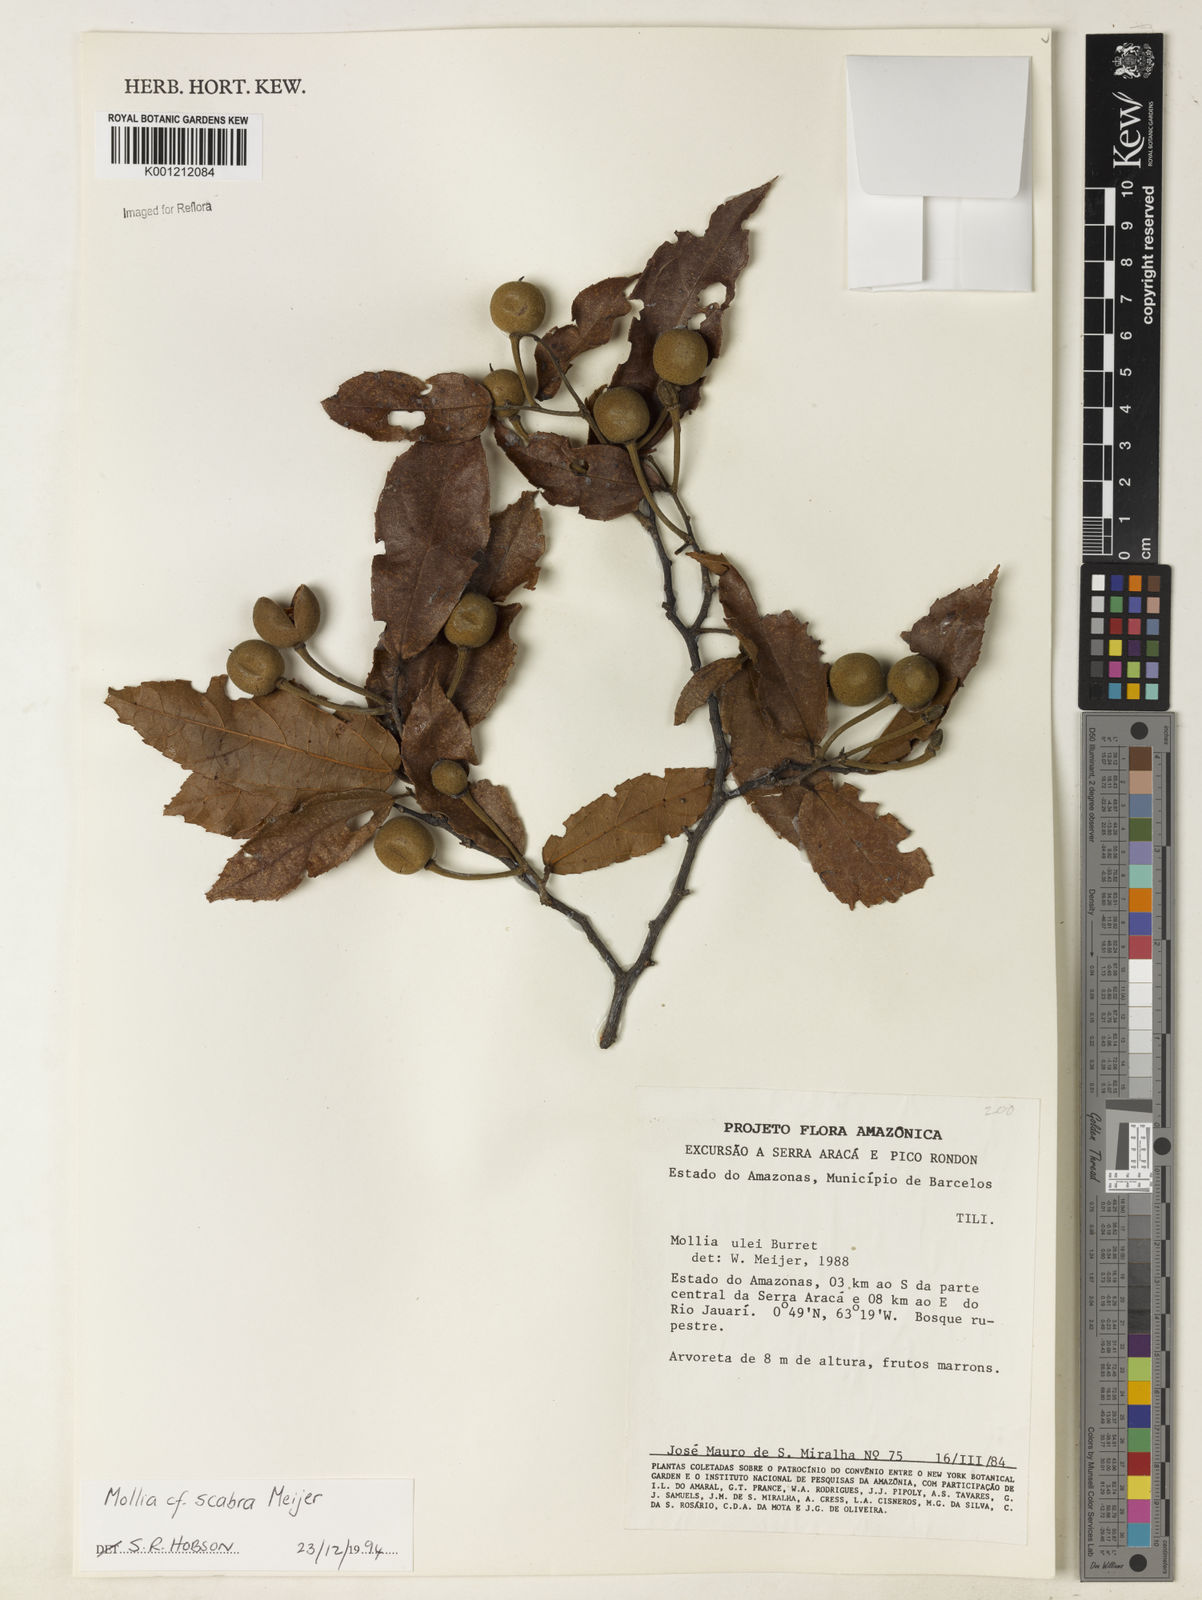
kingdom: Plantae
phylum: Tracheophyta
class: Magnoliopsida
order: Malvales
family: Malvaceae
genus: Mollia
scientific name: Mollia ulei
